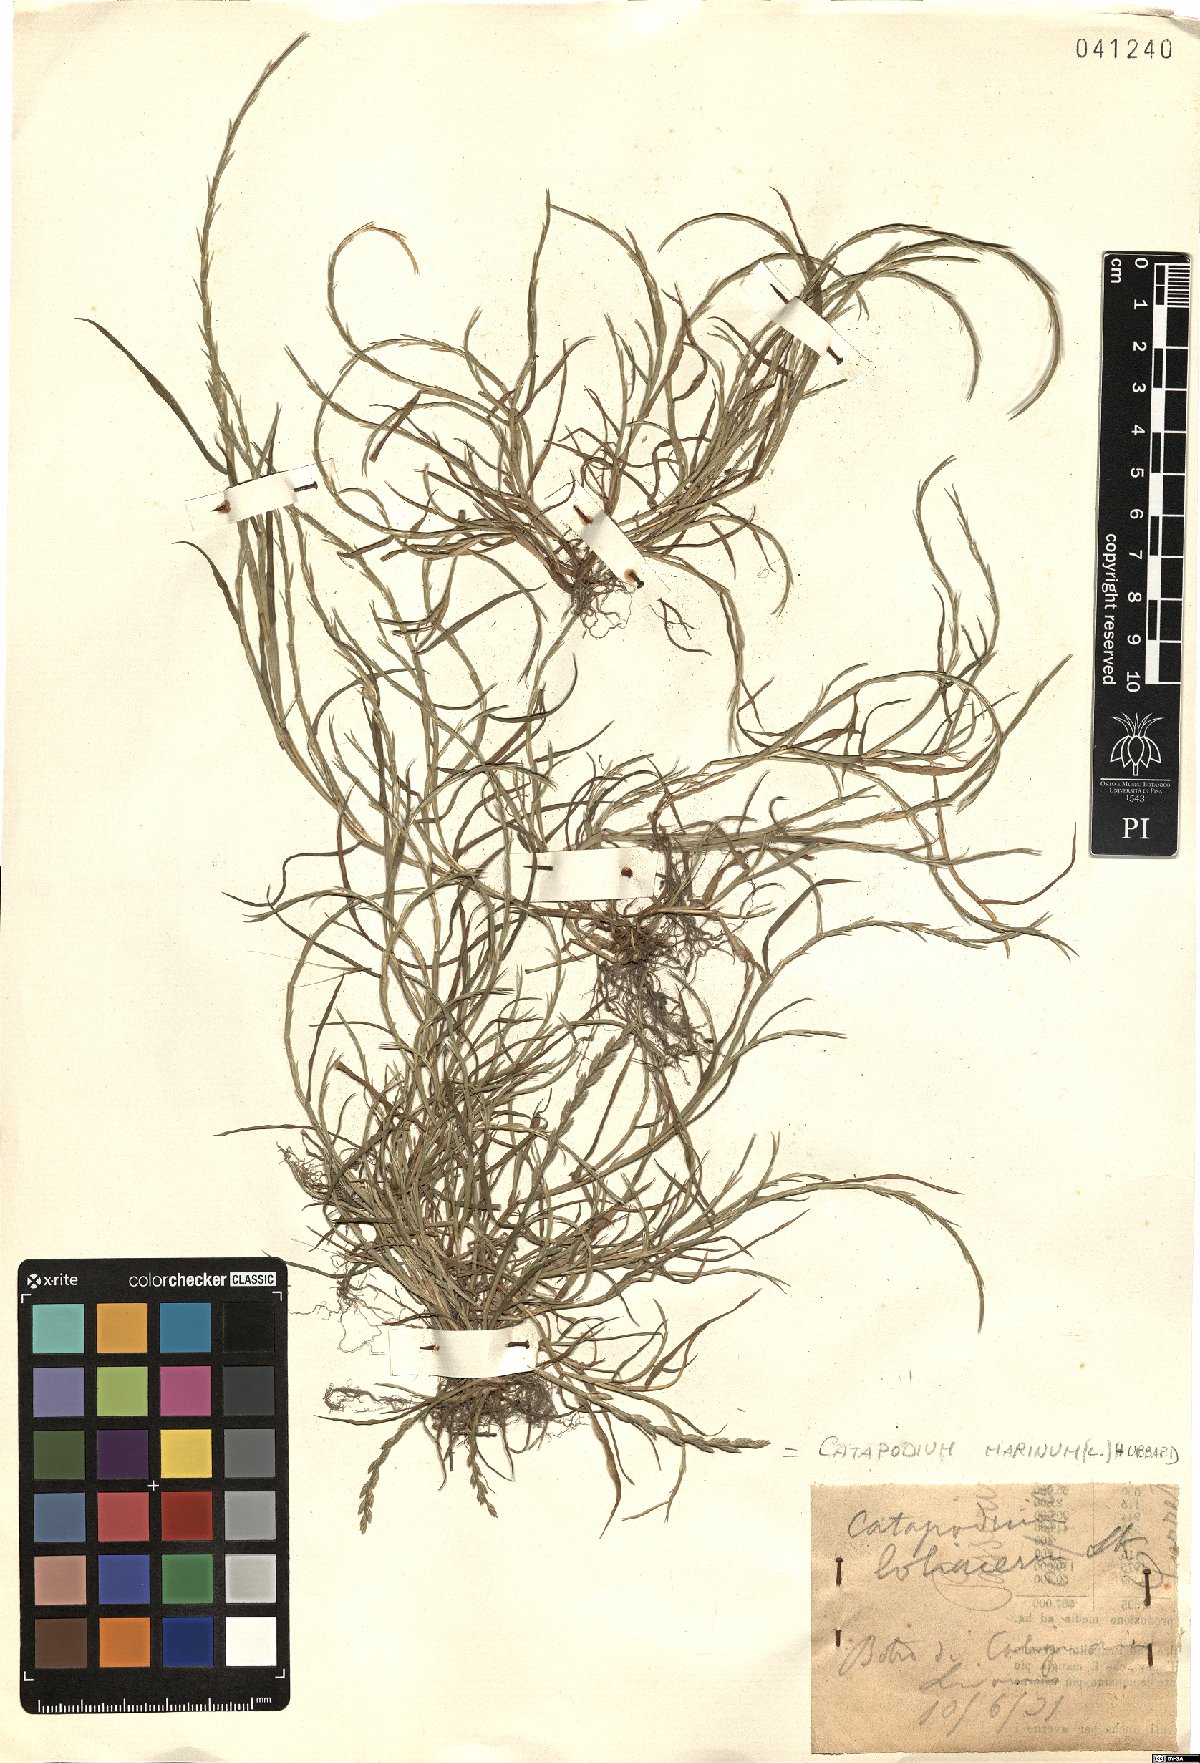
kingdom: Plantae
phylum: Tracheophyta
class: Liliopsida
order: Poales
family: Poaceae
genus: Catapodium
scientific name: Catapodium marinum
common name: Sea fern-grass
